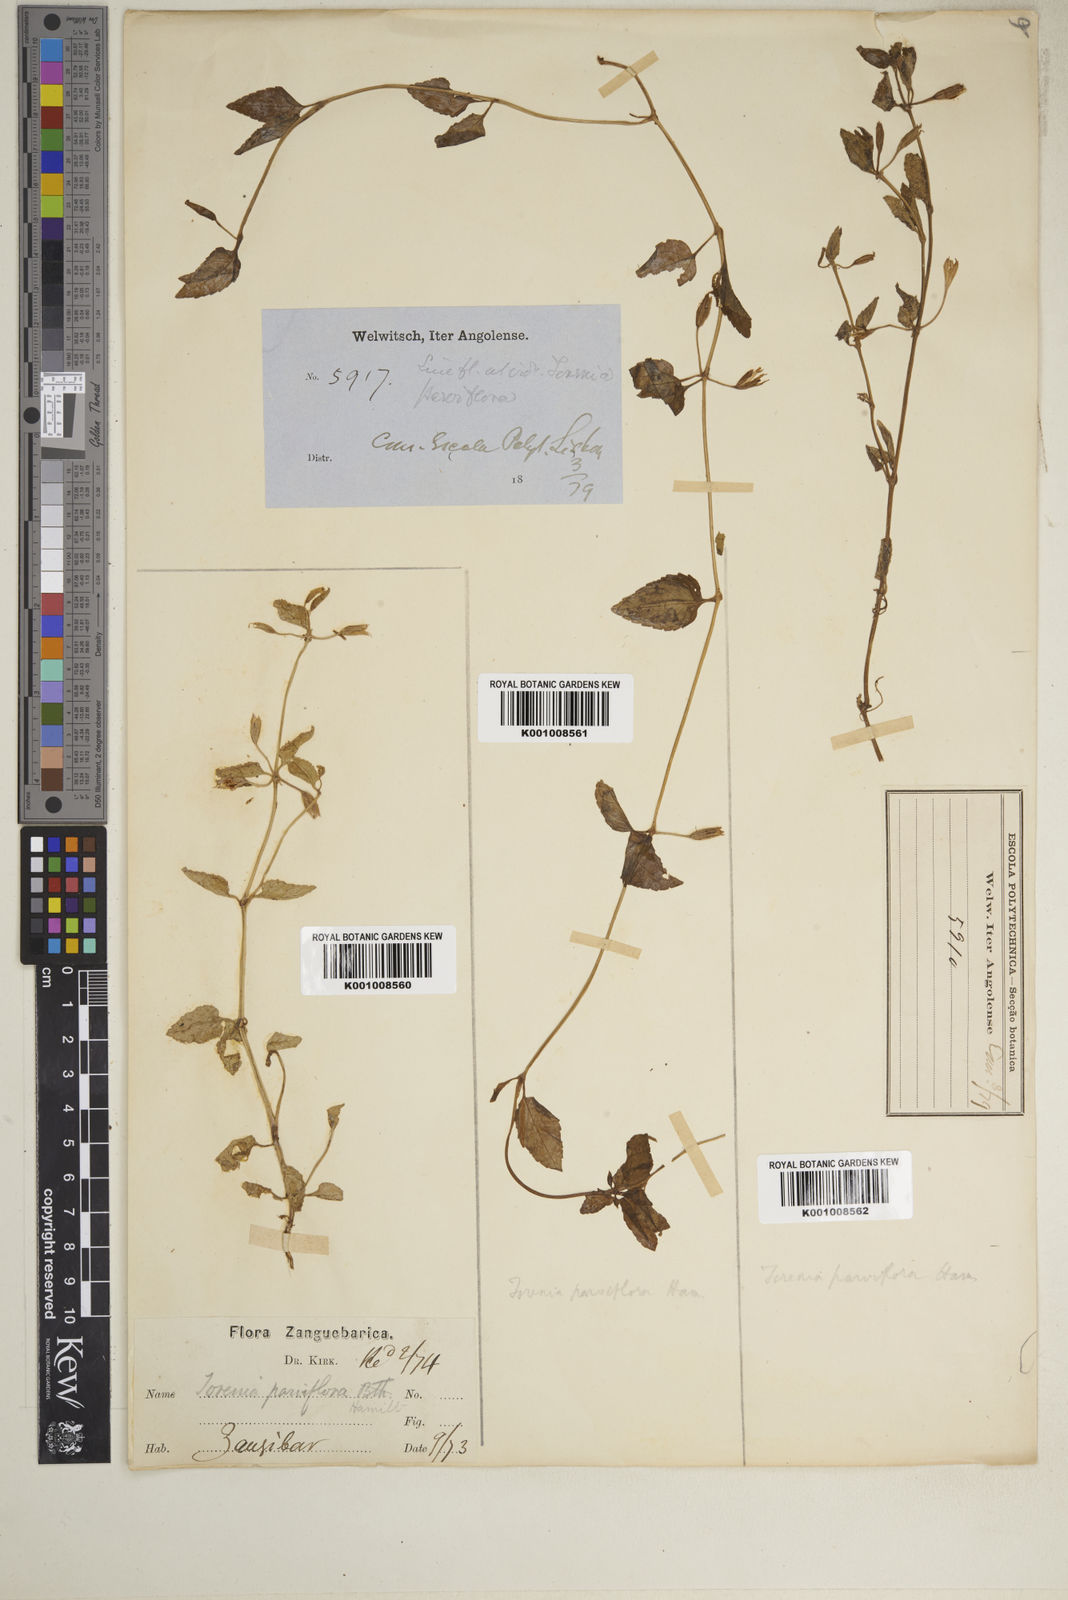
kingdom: Plantae
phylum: Tracheophyta
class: Magnoliopsida
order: Lamiales
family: Linderniaceae
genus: Torenia
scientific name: Torenia thouarsii
